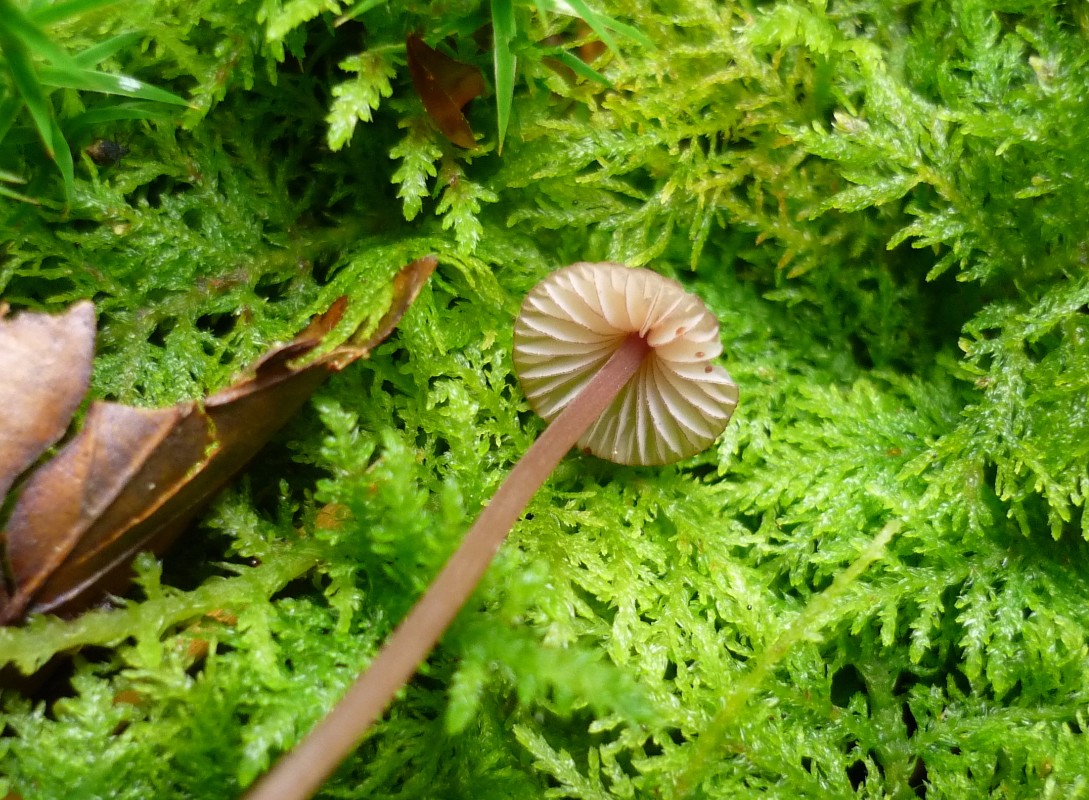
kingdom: Fungi
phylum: Basidiomycota
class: Agaricomycetes
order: Agaricales
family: Mycenaceae
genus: Mycena
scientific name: Mycena sanguinolenta
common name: rødmælket huesvamp
